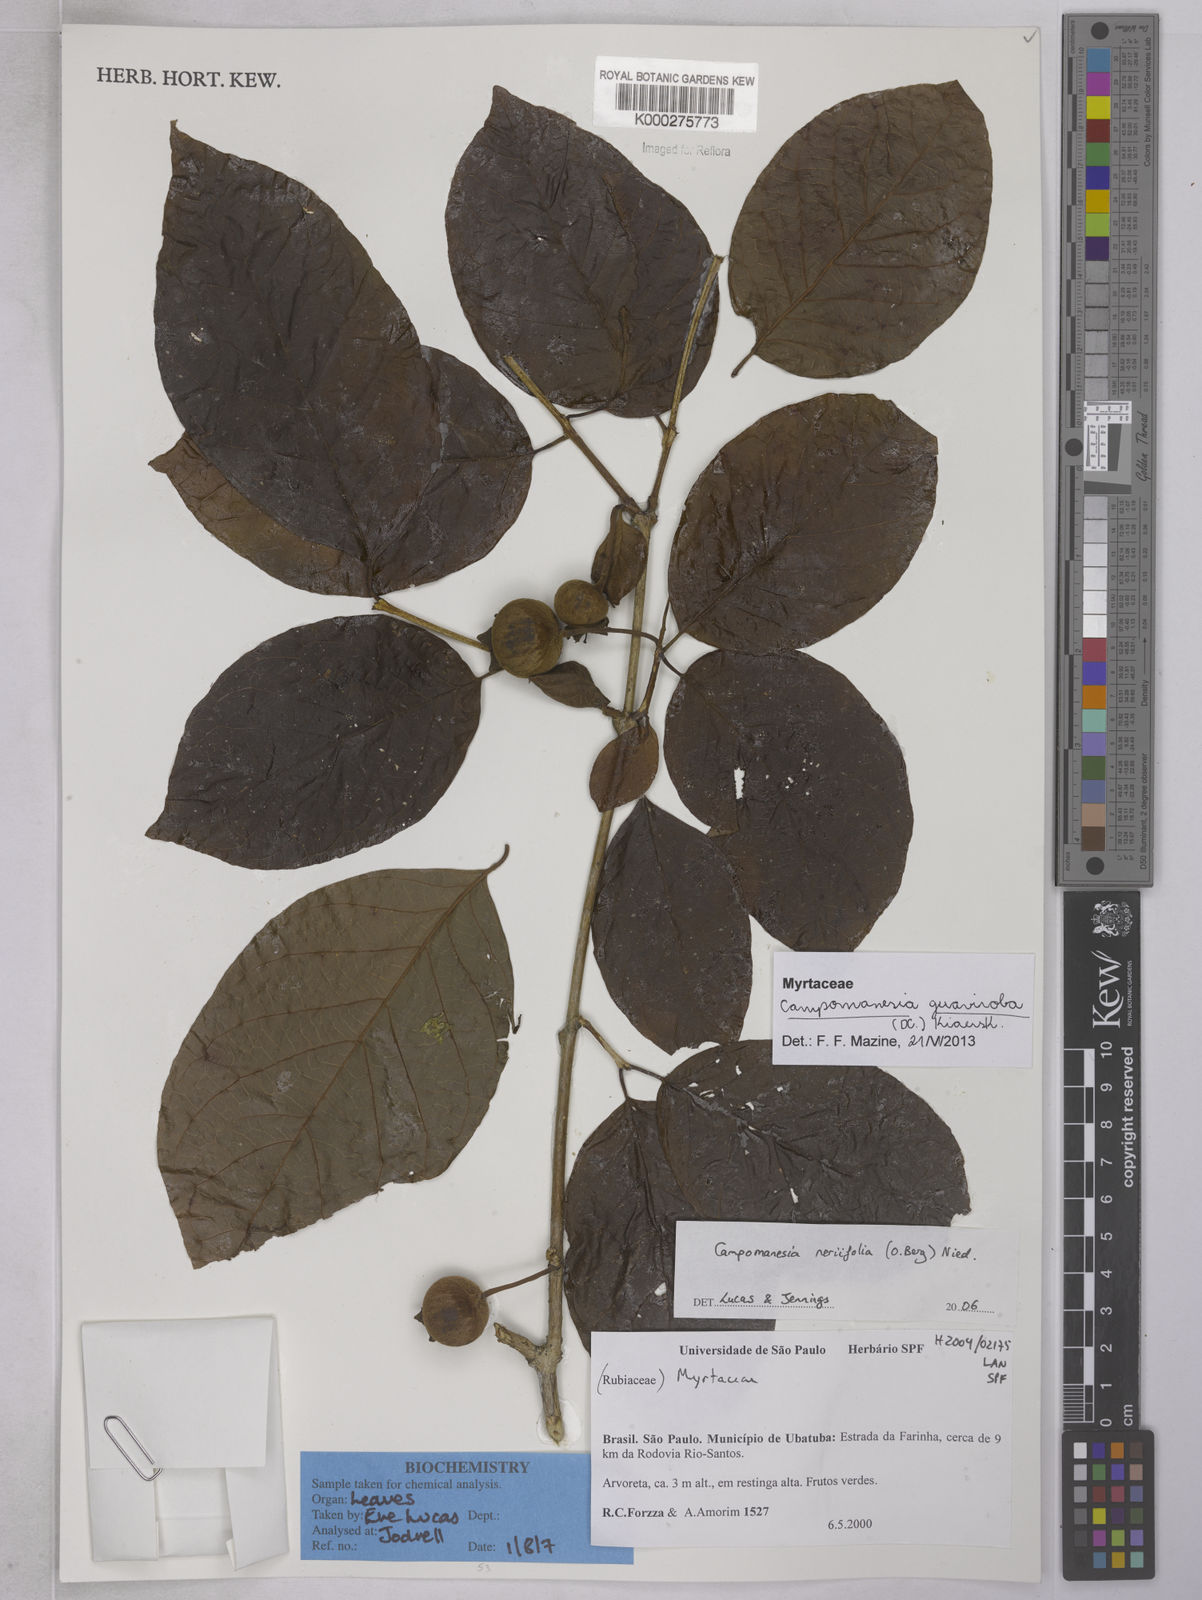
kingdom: Plantae
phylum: Tracheophyta
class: Magnoliopsida
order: Myrtales
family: Myrtaceae
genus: Campomanesia
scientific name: Campomanesia
